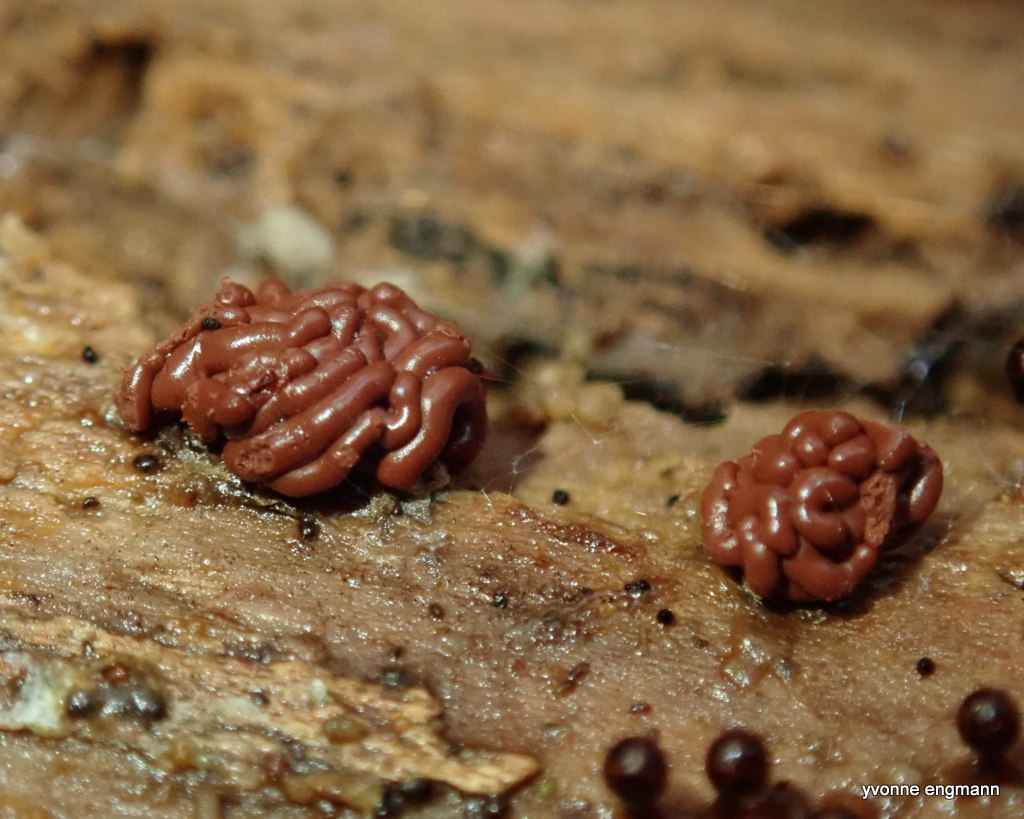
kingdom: Protozoa
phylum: Mycetozoa
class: Myxomycetes
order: Trichiales
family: Arcyriaceae
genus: Arcyria
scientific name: Arcyria stipata
